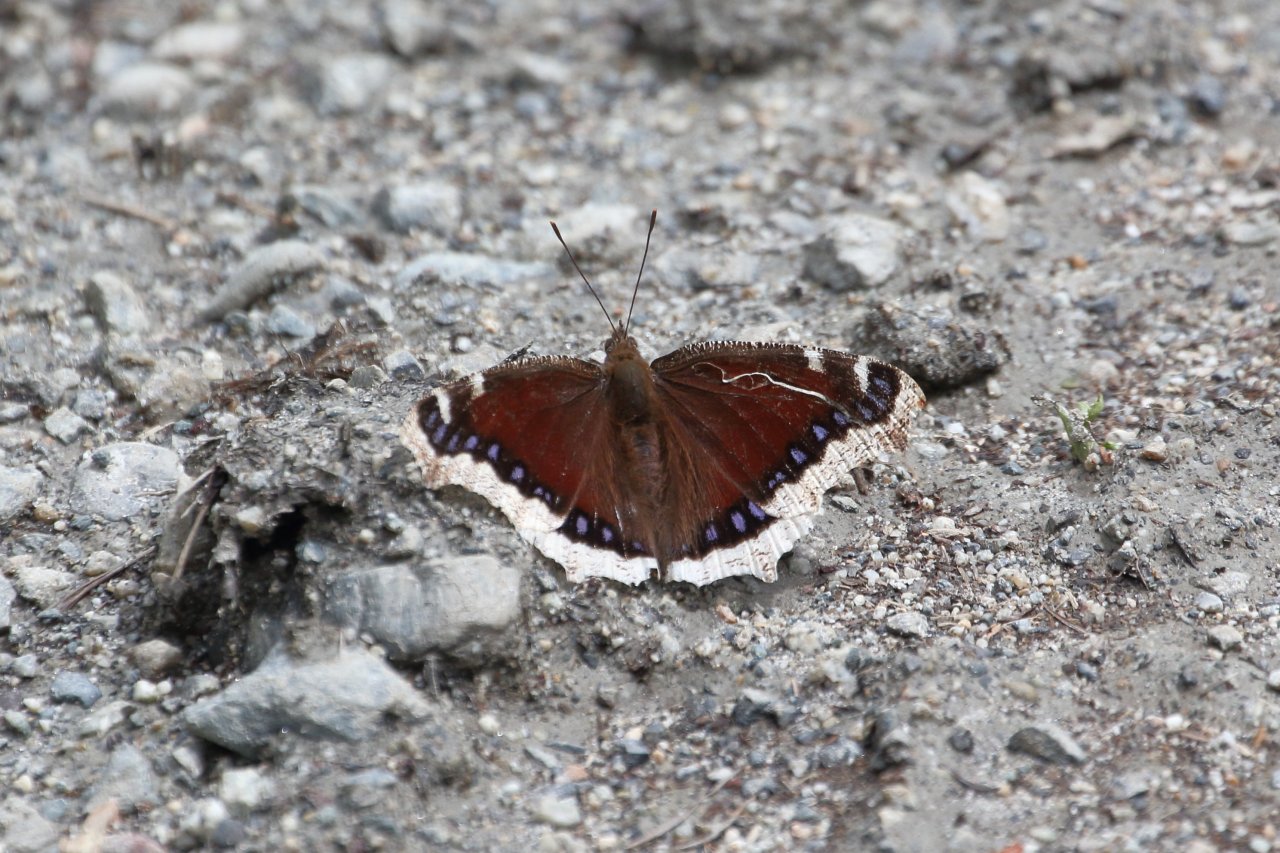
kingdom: Animalia
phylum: Arthropoda
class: Insecta
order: Lepidoptera
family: Nymphalidae
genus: Nymphalis
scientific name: Nymphalis antiopa
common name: Mourning Cloak
